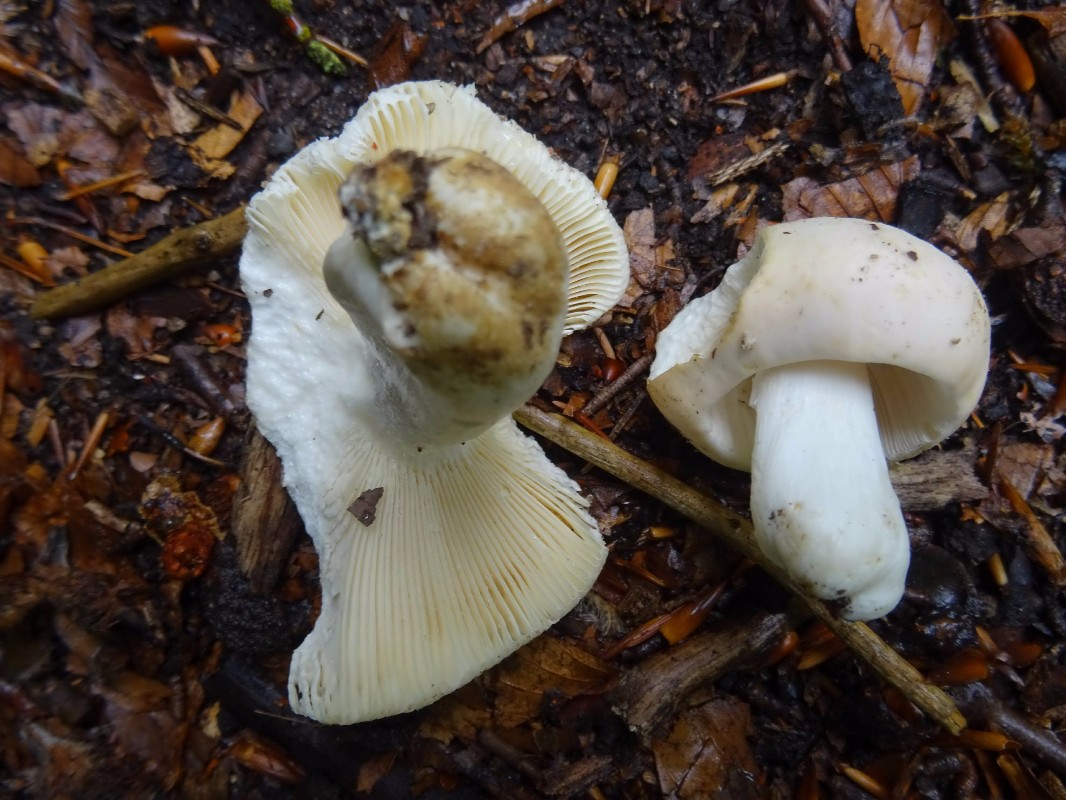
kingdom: Fungi
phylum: Basidiomycota
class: Agaricomycetes
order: Russulales
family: Russulaceae
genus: Russula
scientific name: Russula heterophylla
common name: gaffelbladet skørhat
